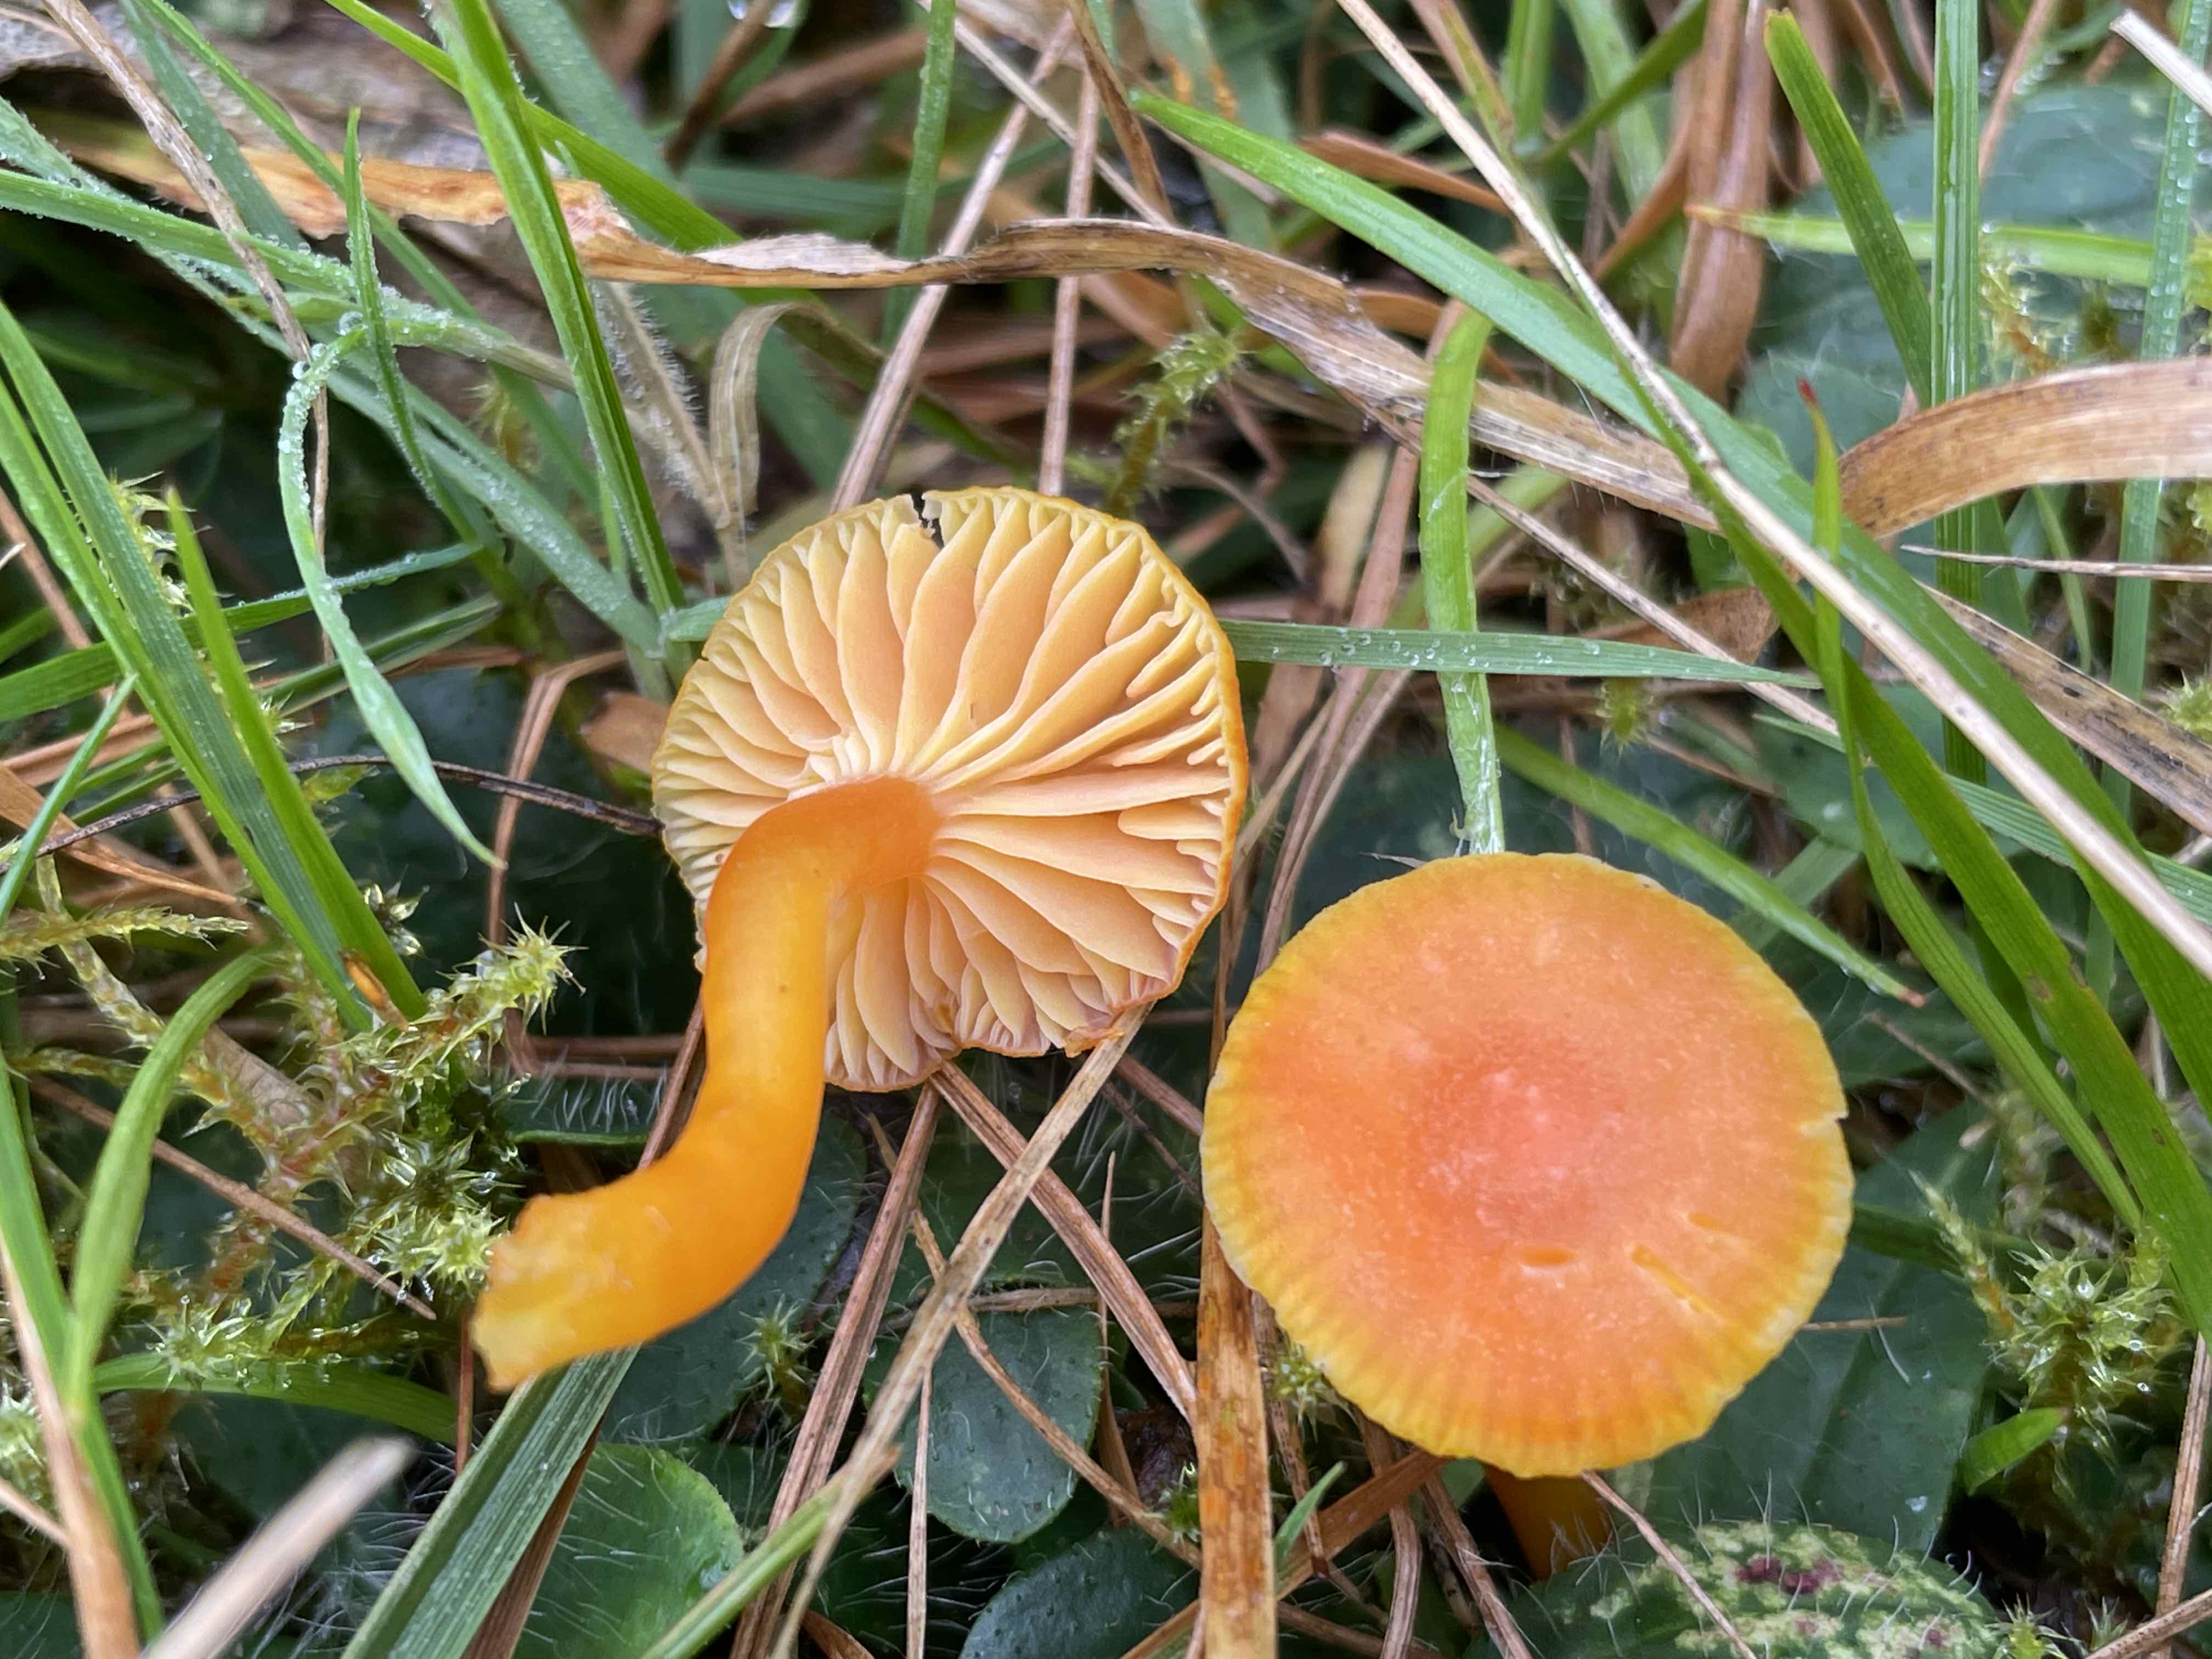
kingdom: Fungi
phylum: Basidiomycota
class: Agaricomycetes
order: Agaricales
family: Hygrophoraceae
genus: Hygrocybe
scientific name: Hygrocybe reidii
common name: honning-vokshat
